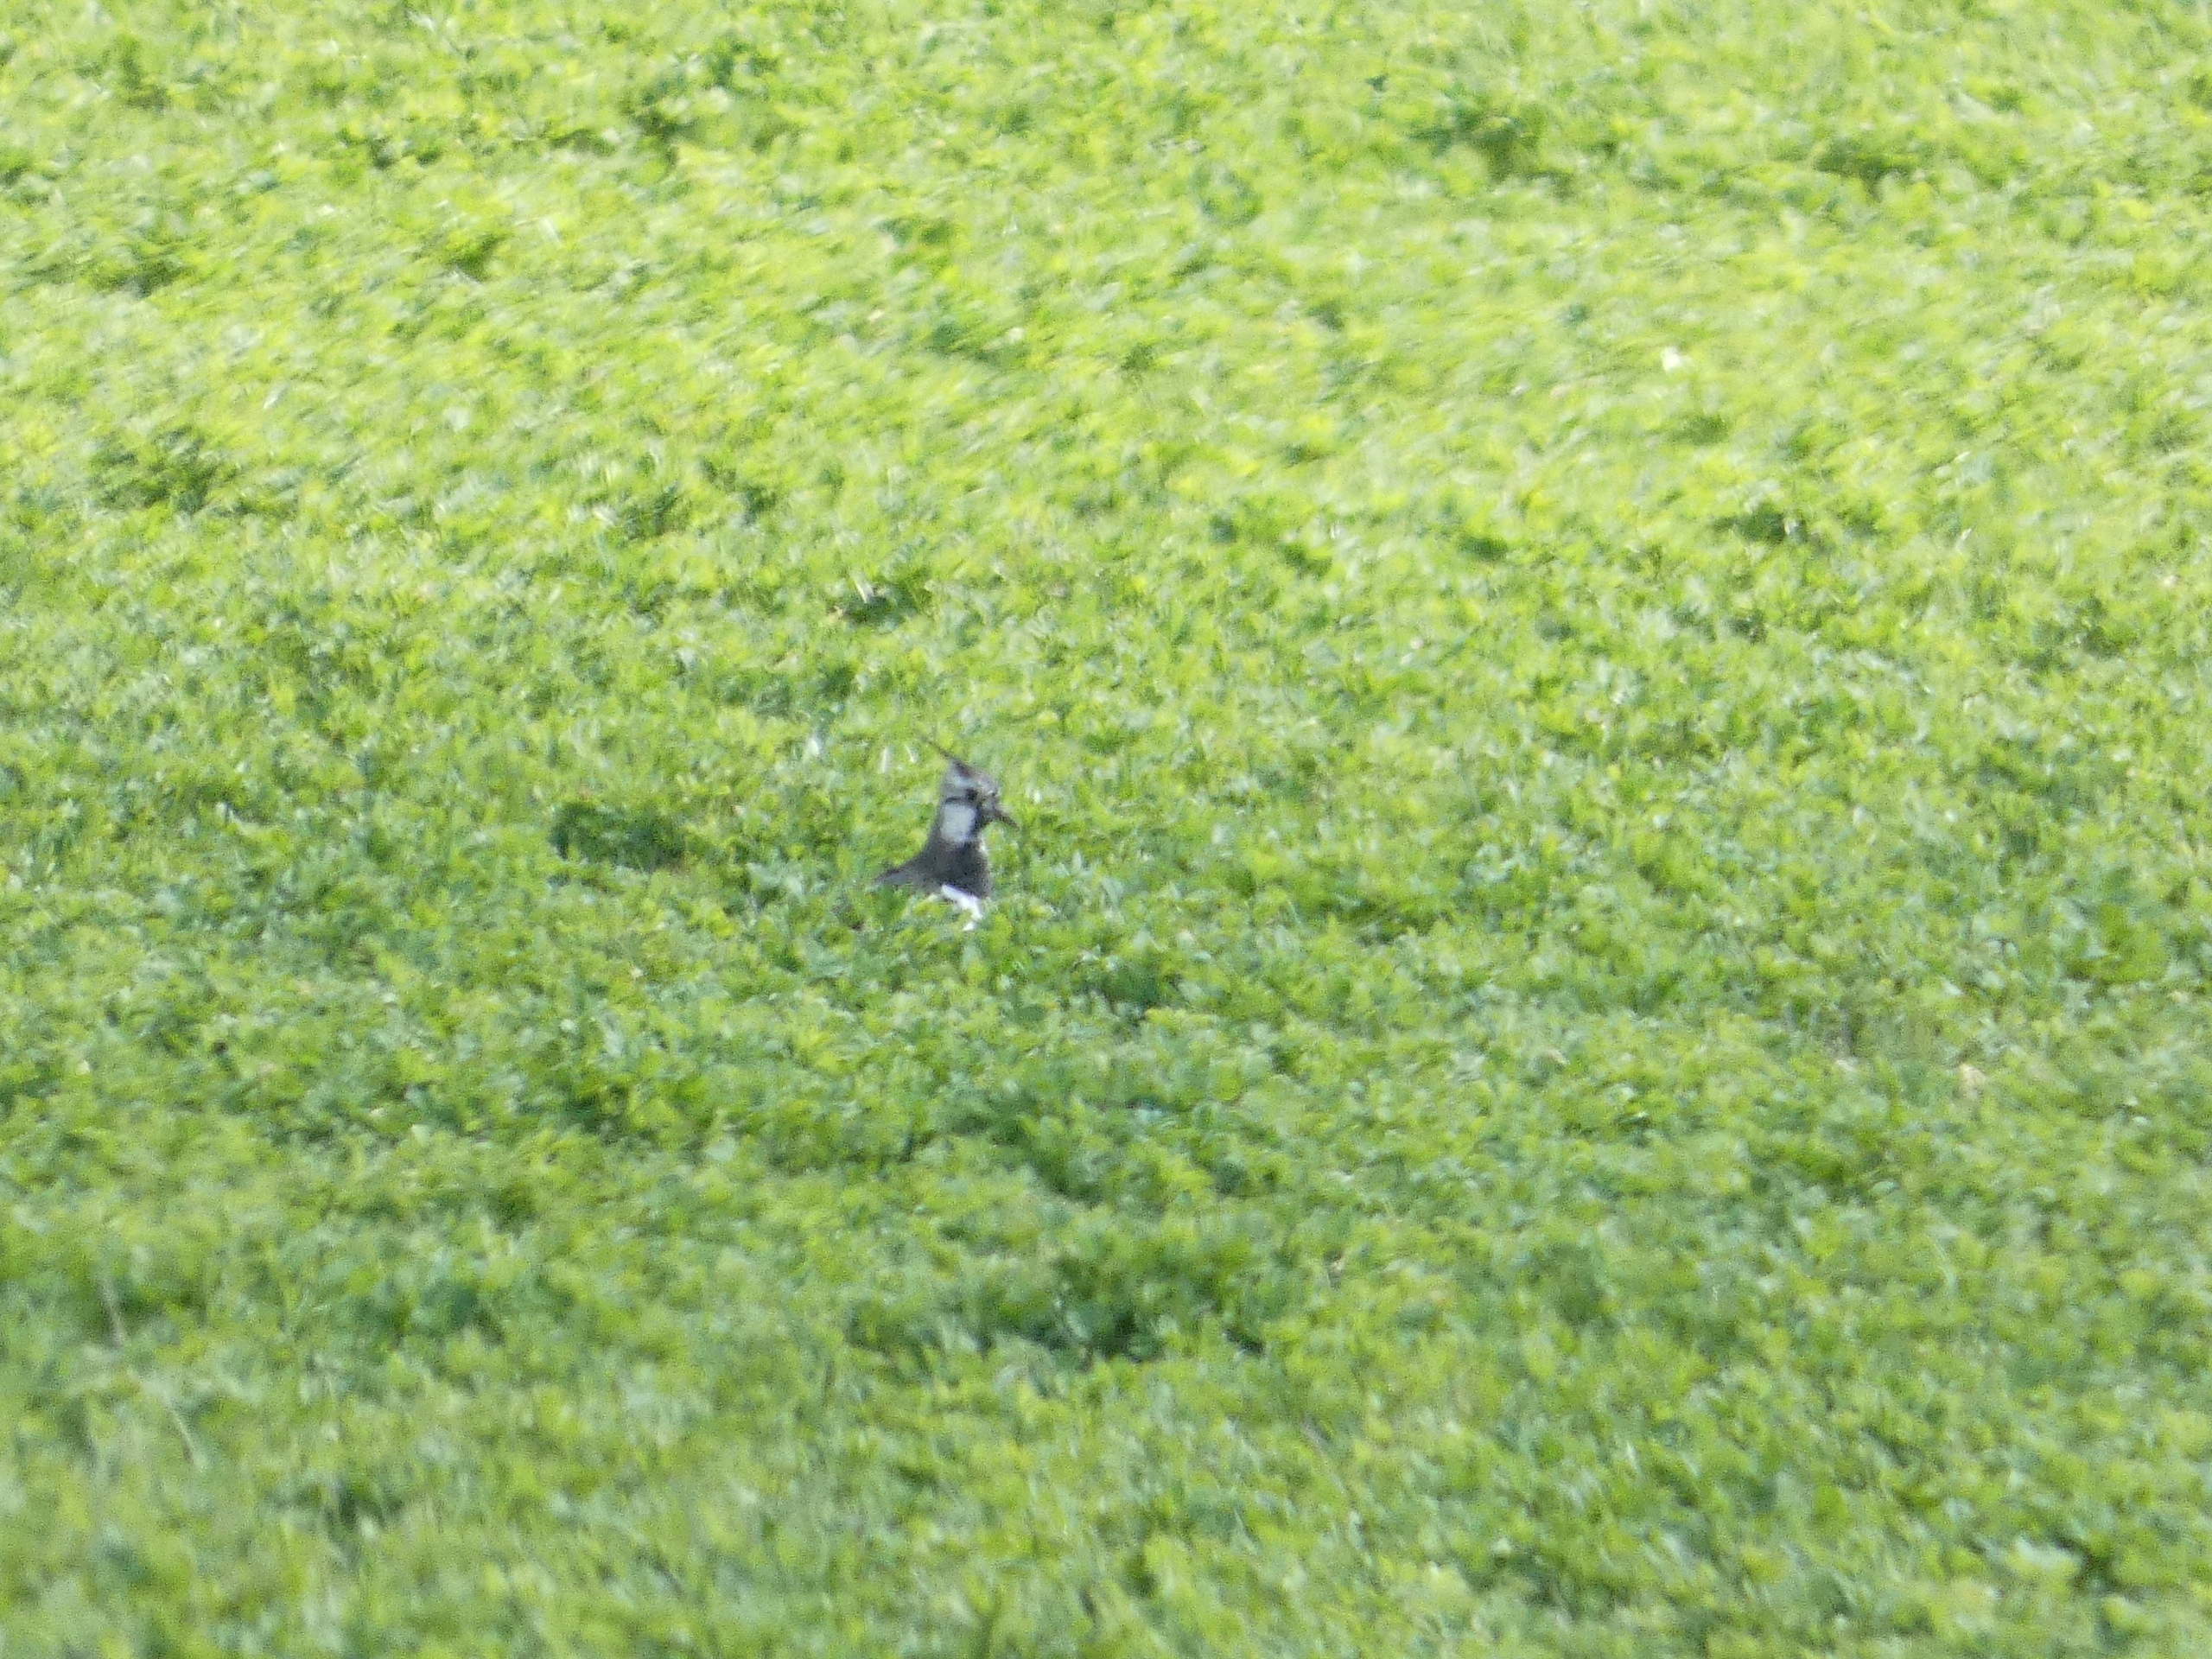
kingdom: Animalia
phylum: Chordata
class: Aves
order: Charadriiformes
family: Charadriidae
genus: Vanellus
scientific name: Vanellus vanellus
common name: Vibe
